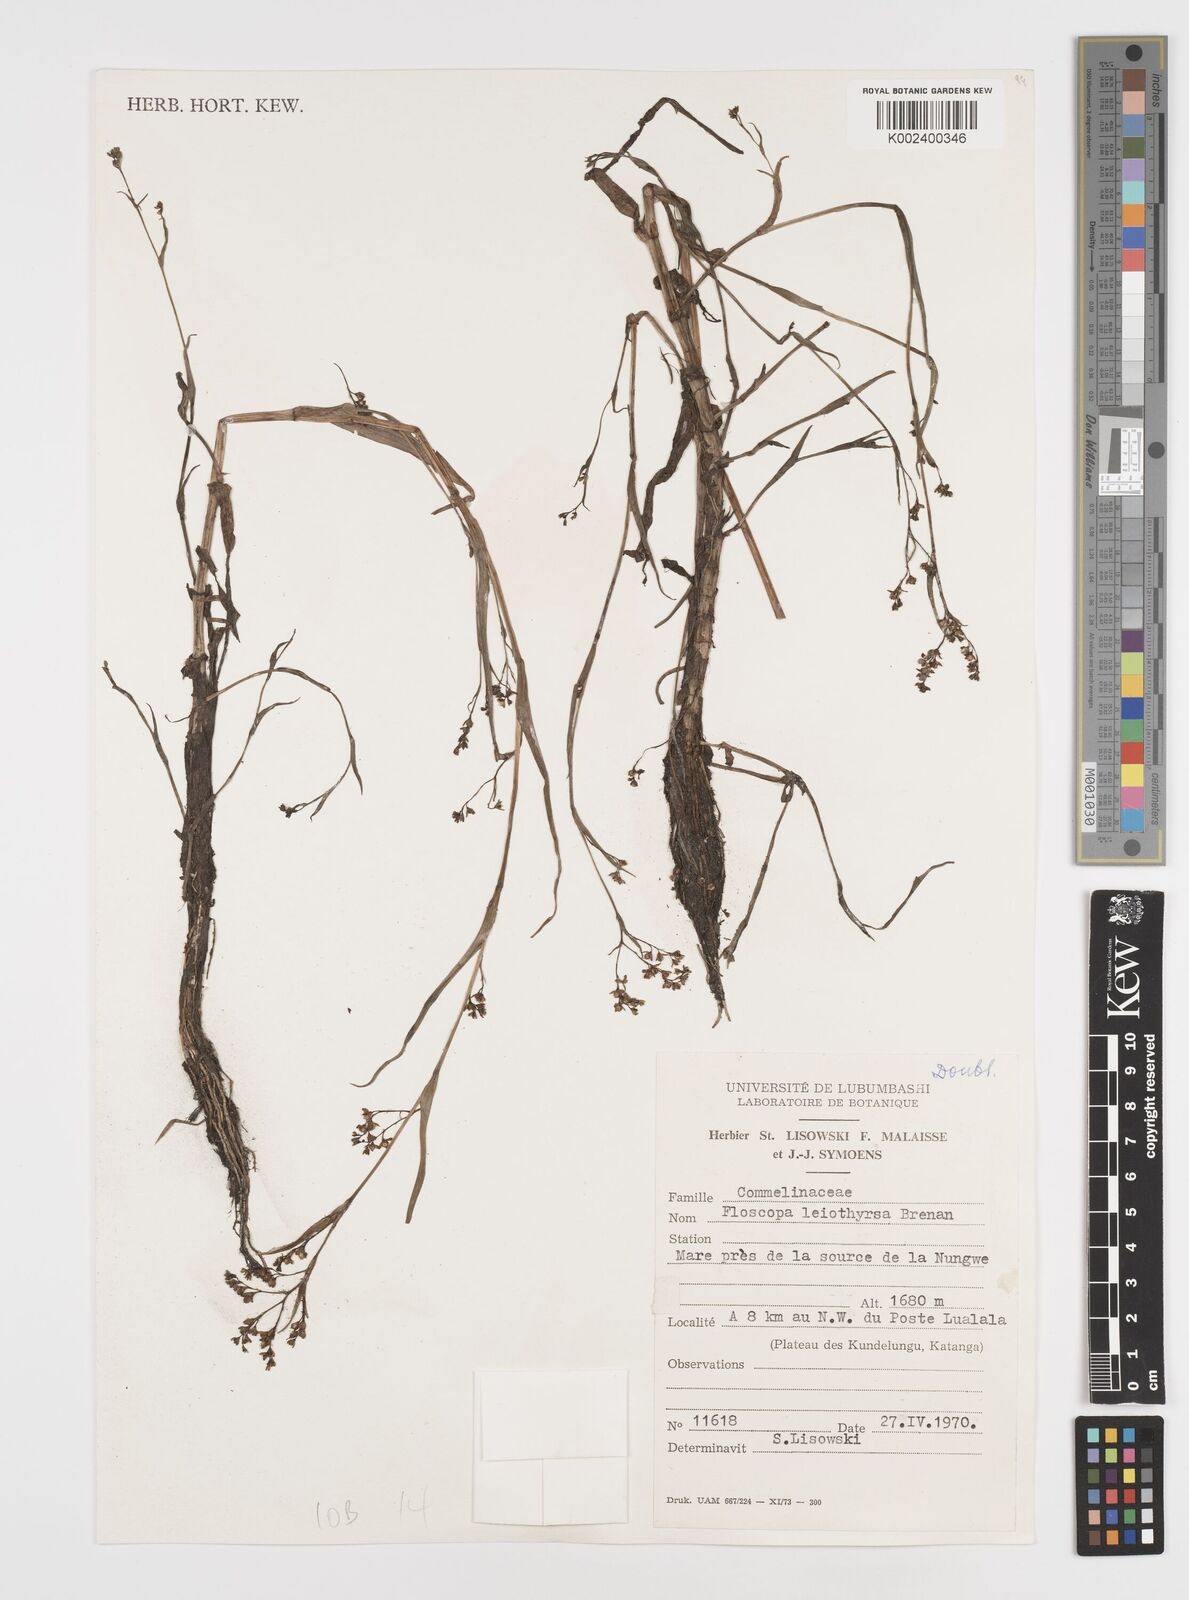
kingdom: Plantae
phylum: Tracheophyta
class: Liliopsida
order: Commelinales
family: Commelinaceae
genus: Floscopa
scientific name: Floscopa leiothyrsa
